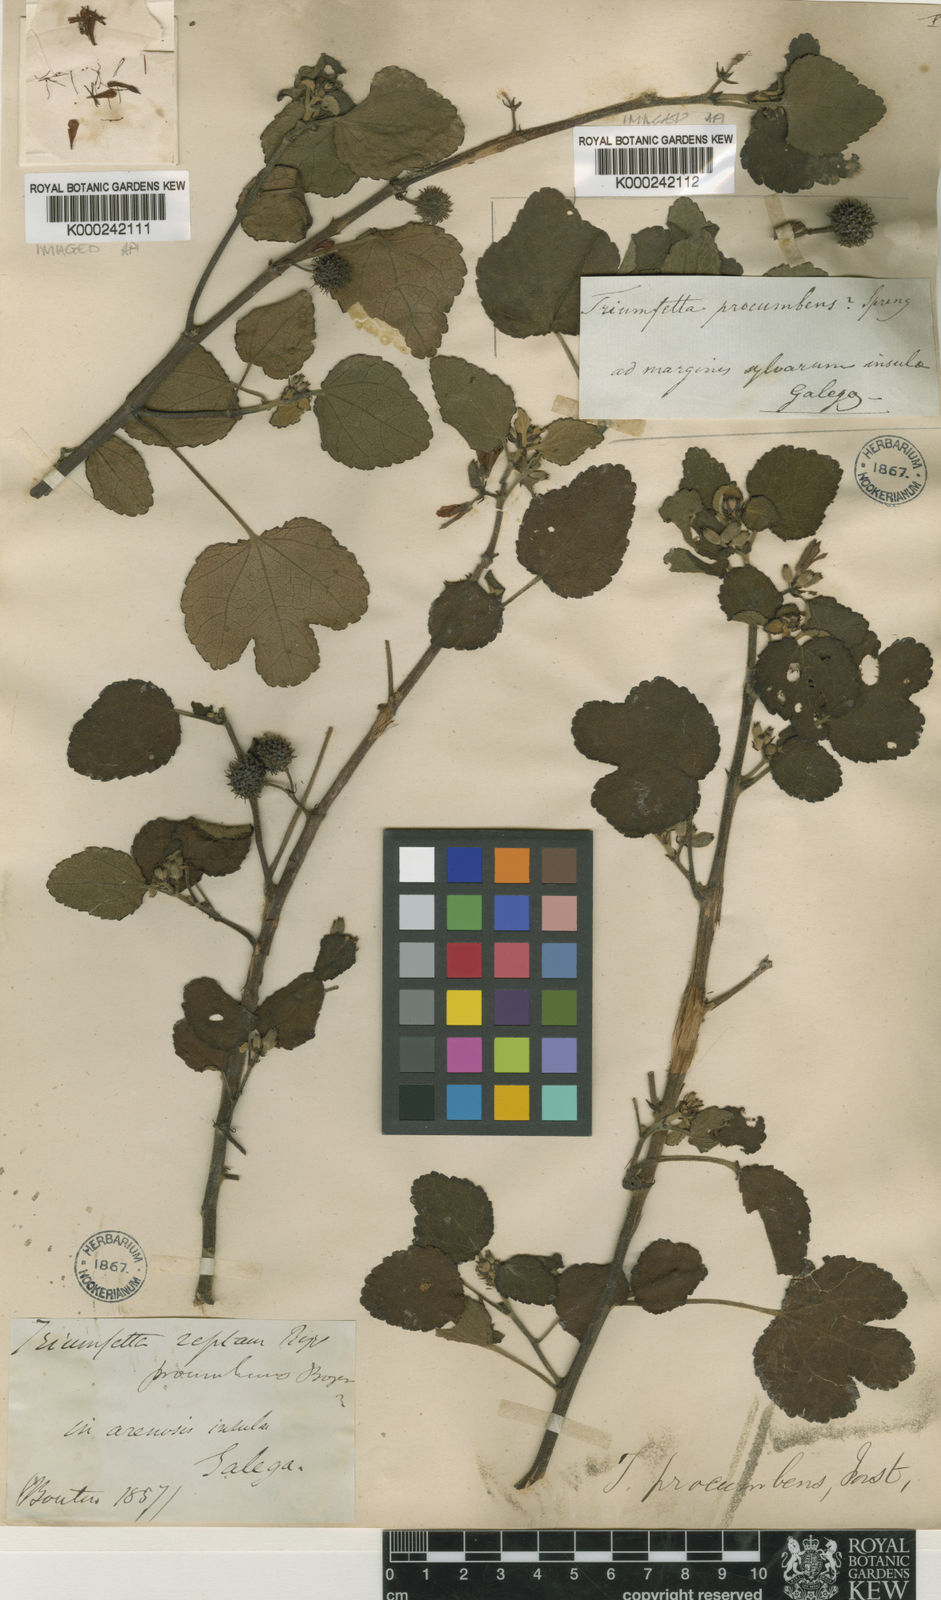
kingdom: Plantae
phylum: Tracheophyta
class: Magnoliopsida
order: Malvales
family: Malvaceae
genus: Triumfetta
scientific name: Triumfetta repens
